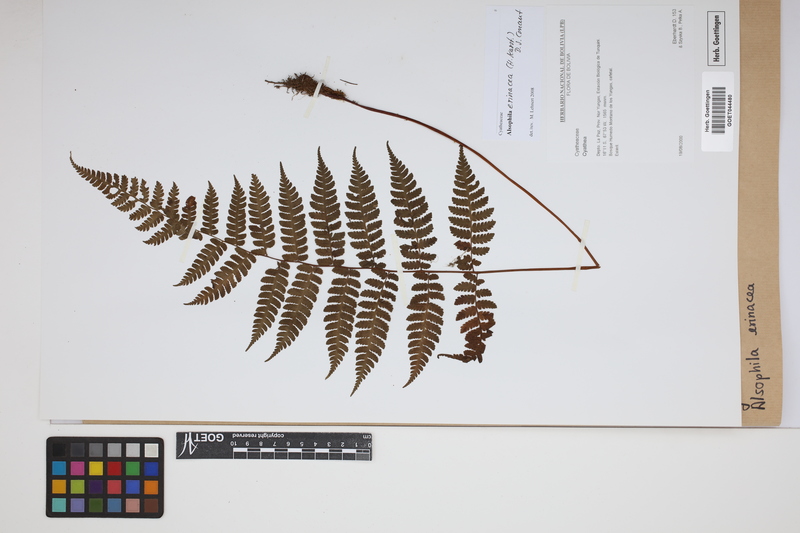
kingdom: Plantae
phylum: Tracheophyta
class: Polypodiopsida
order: Cyatheales
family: Cyatheaceae
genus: Alsophila
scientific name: Alsophila erinacea
